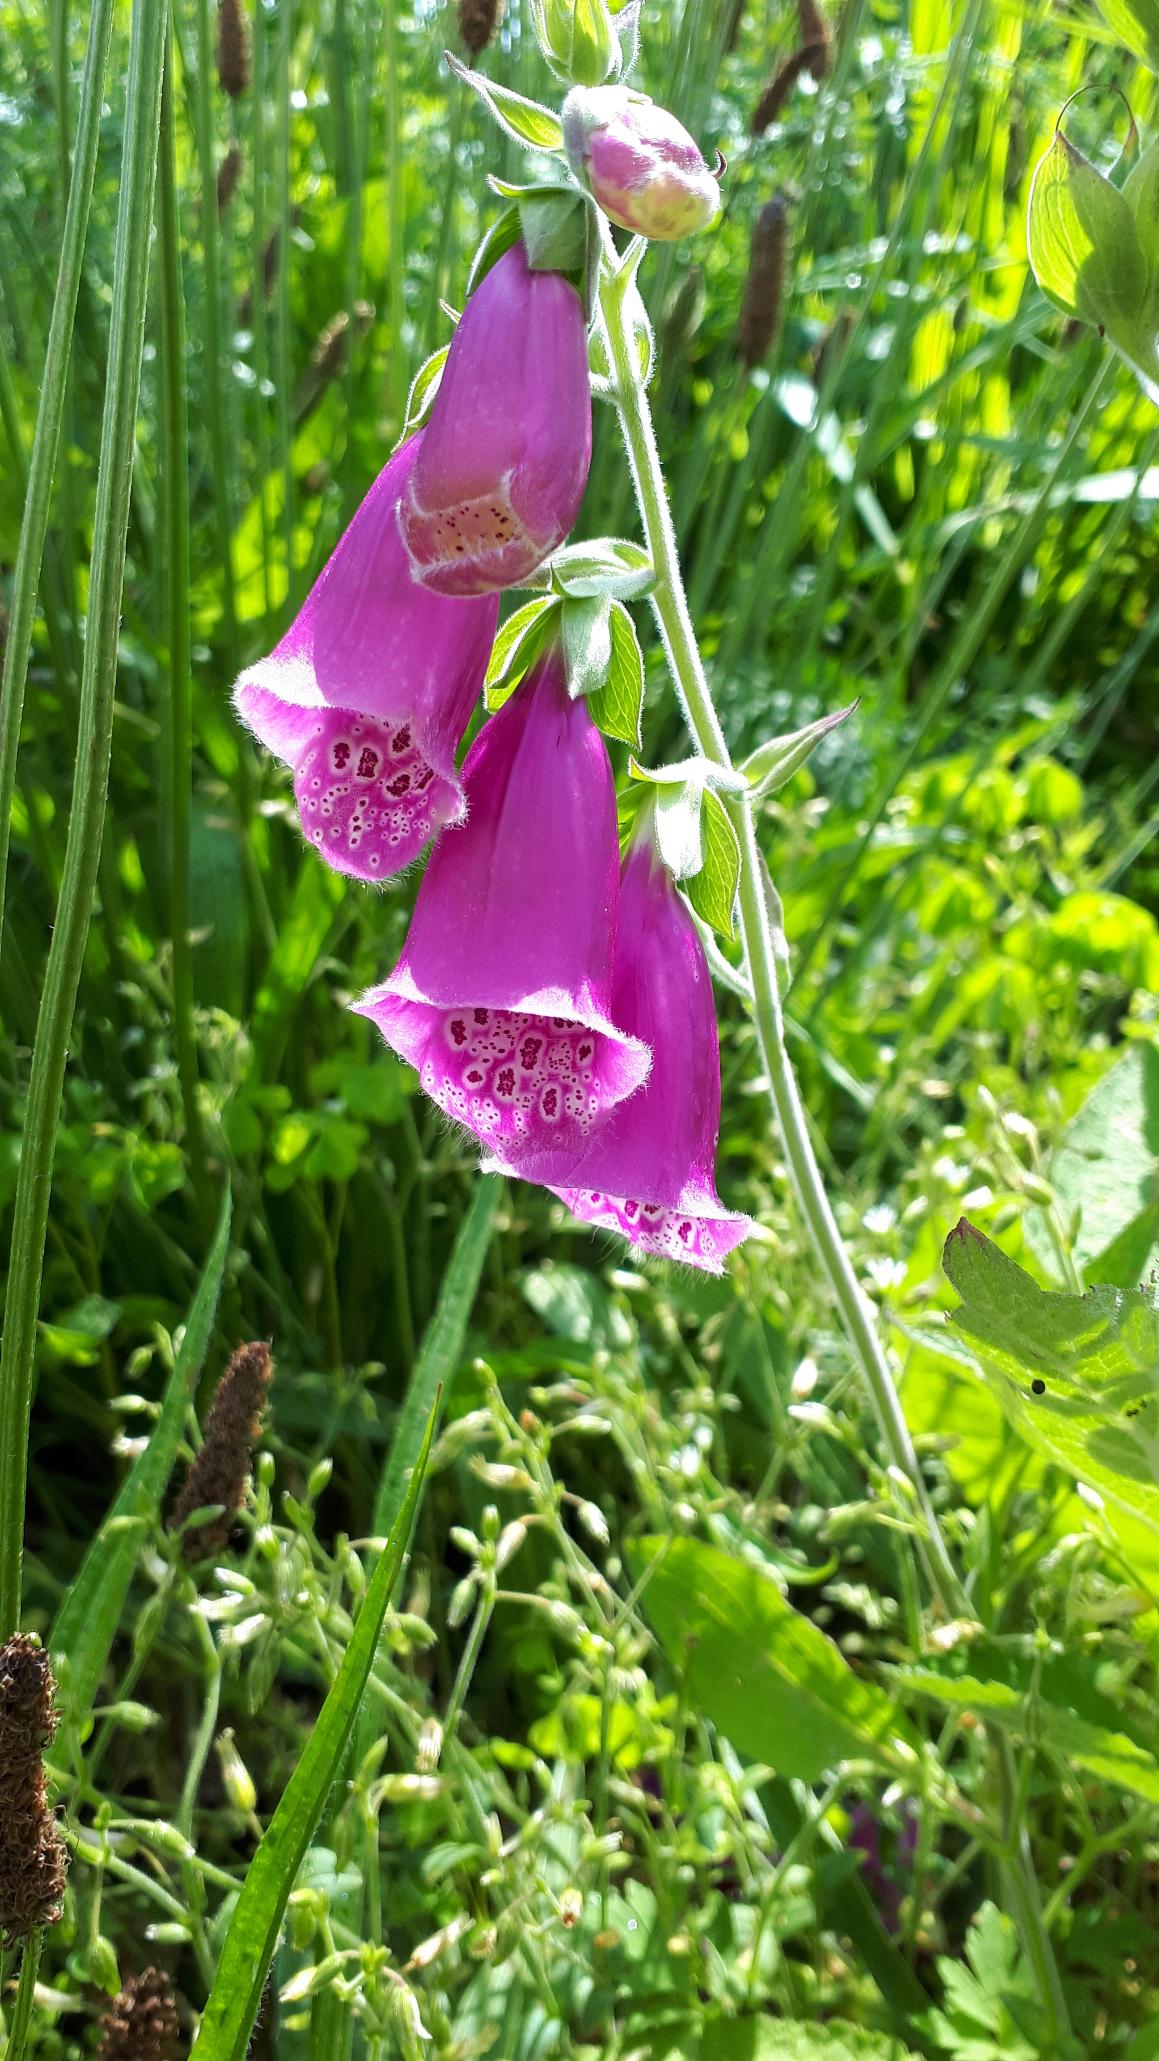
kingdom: Plantae
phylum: Tracheophyta
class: Magnoliopsida
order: Lamiales
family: Plantaginaceae
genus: Digitalis
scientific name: Digitalis purpurea
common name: Almindelig fingerbøl
